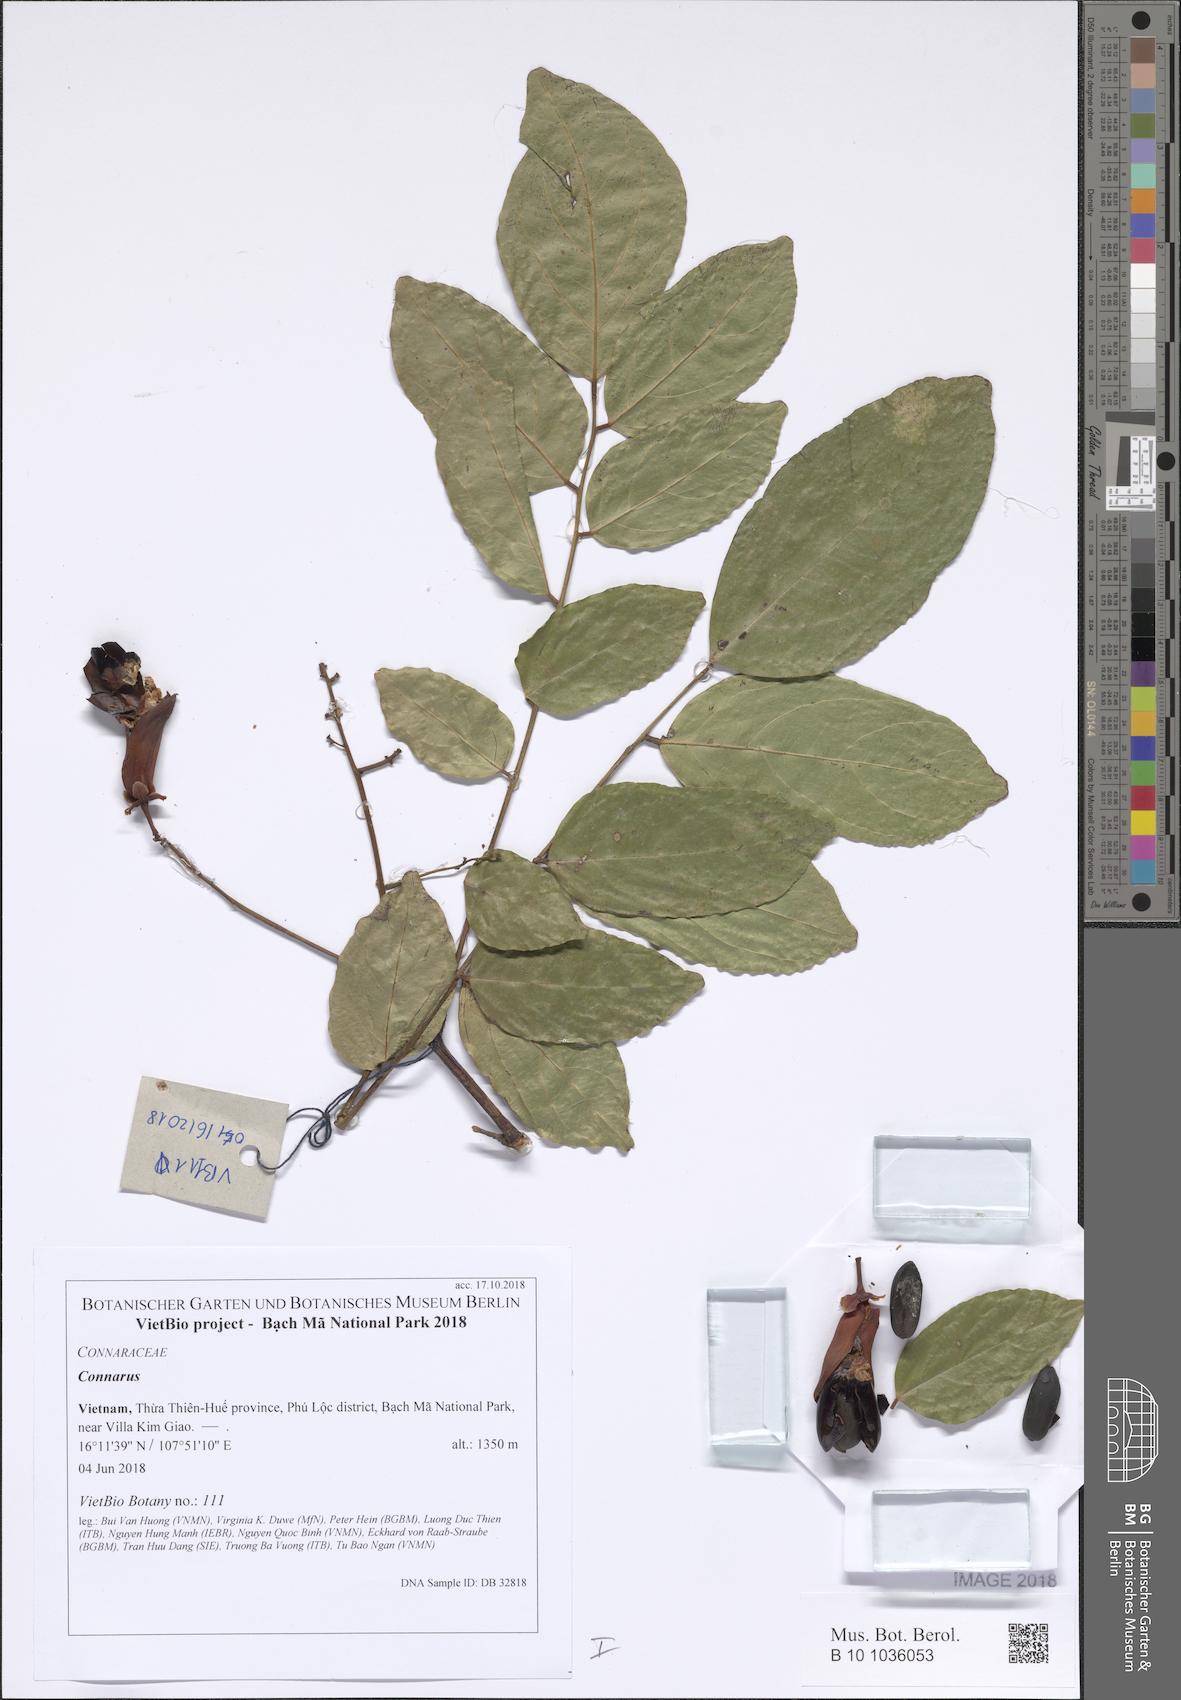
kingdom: Plantae
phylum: Tracheophyta
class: Magnoliopsida
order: Oxalidales
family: Connaraceae
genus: Connarus
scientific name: Connarus
